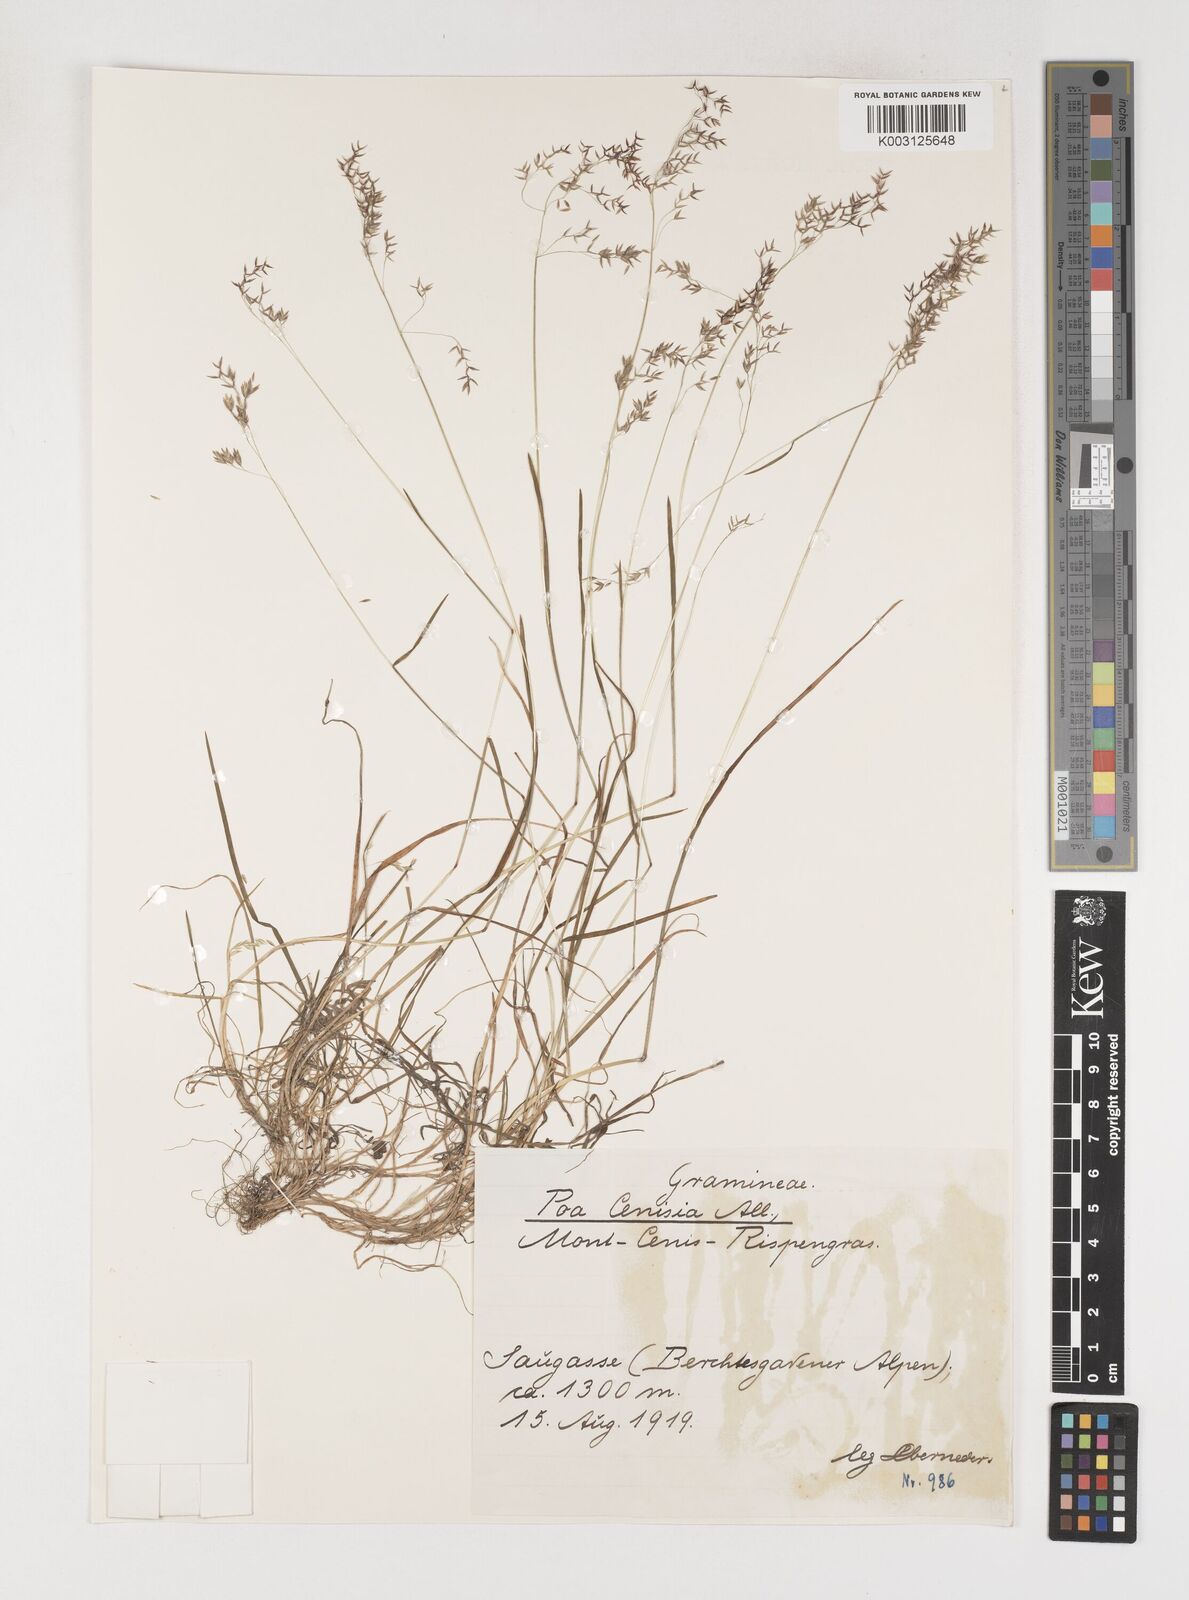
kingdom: Plantae
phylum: Tracheophyta
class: Liliopsida
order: Poales
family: Poaceae
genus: Poa
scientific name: Poa
